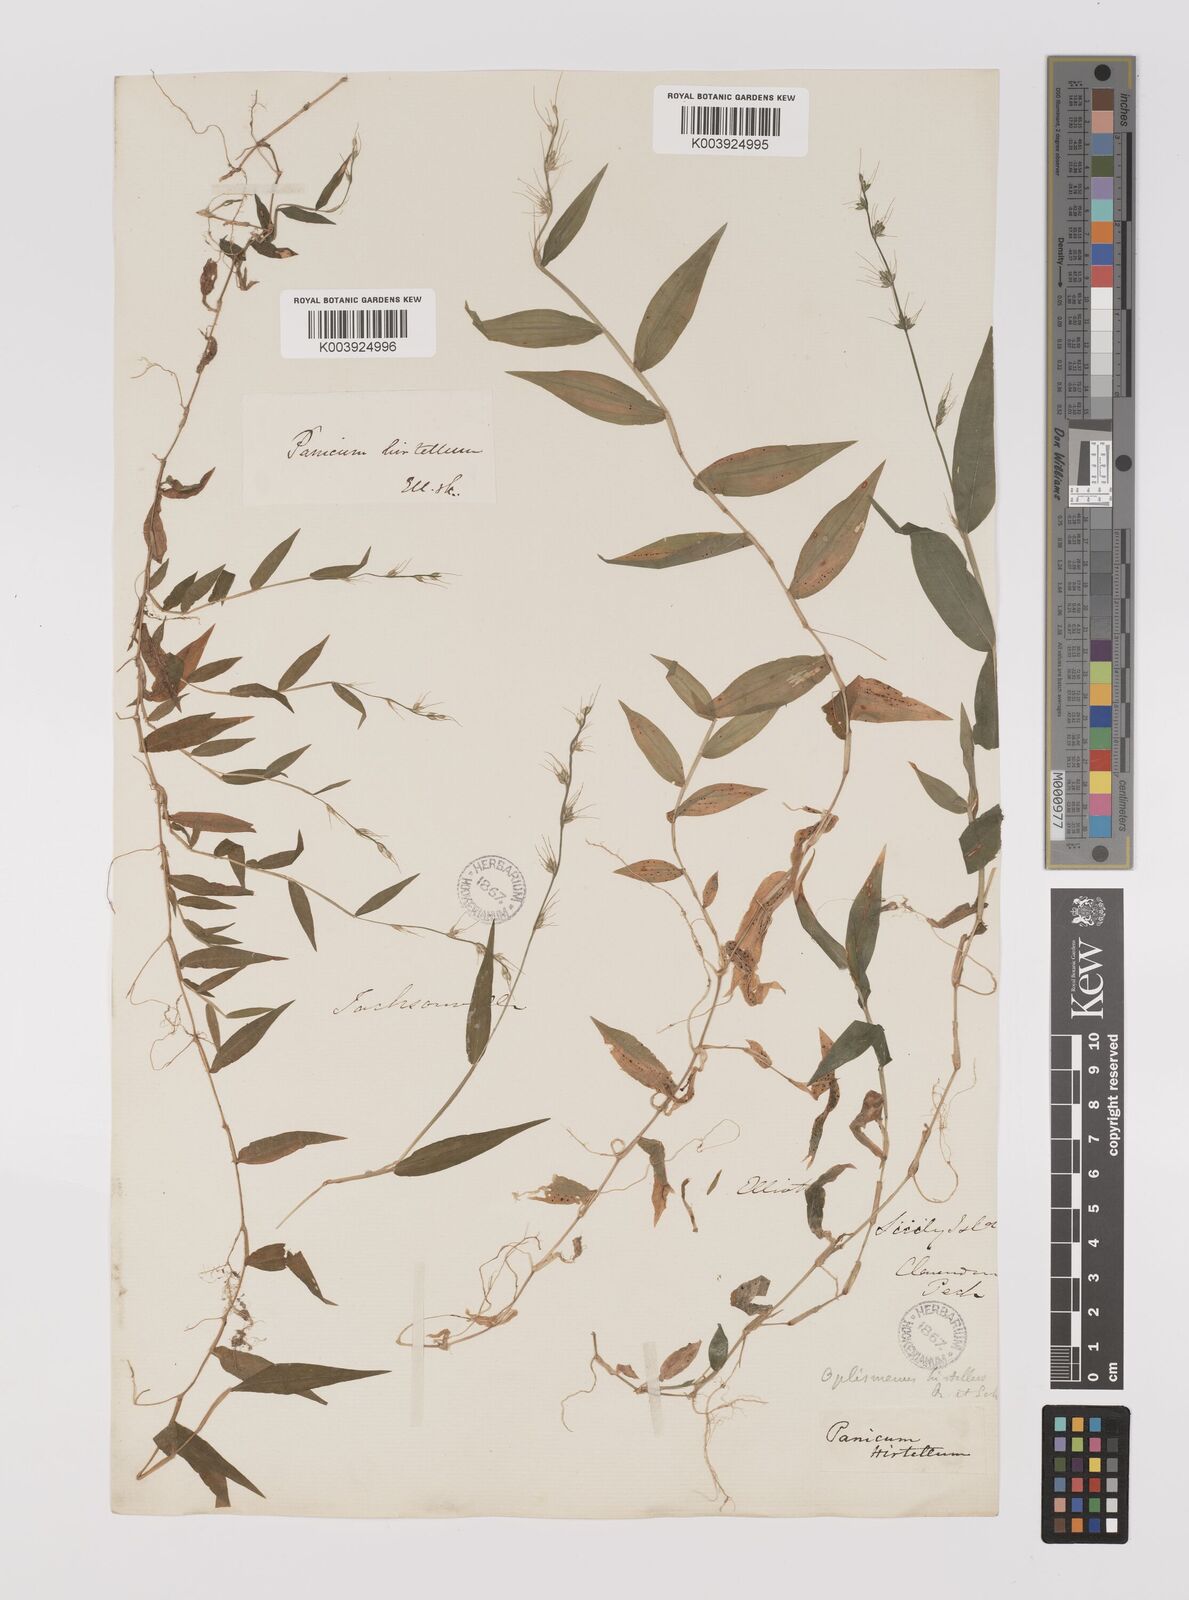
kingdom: Plantae
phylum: Tracheophyta
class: Liliopsida
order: Poales
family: Poaceae
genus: Oplismenus
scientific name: Oplismenus undulatifolius
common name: Wavyleaf basketgrass
